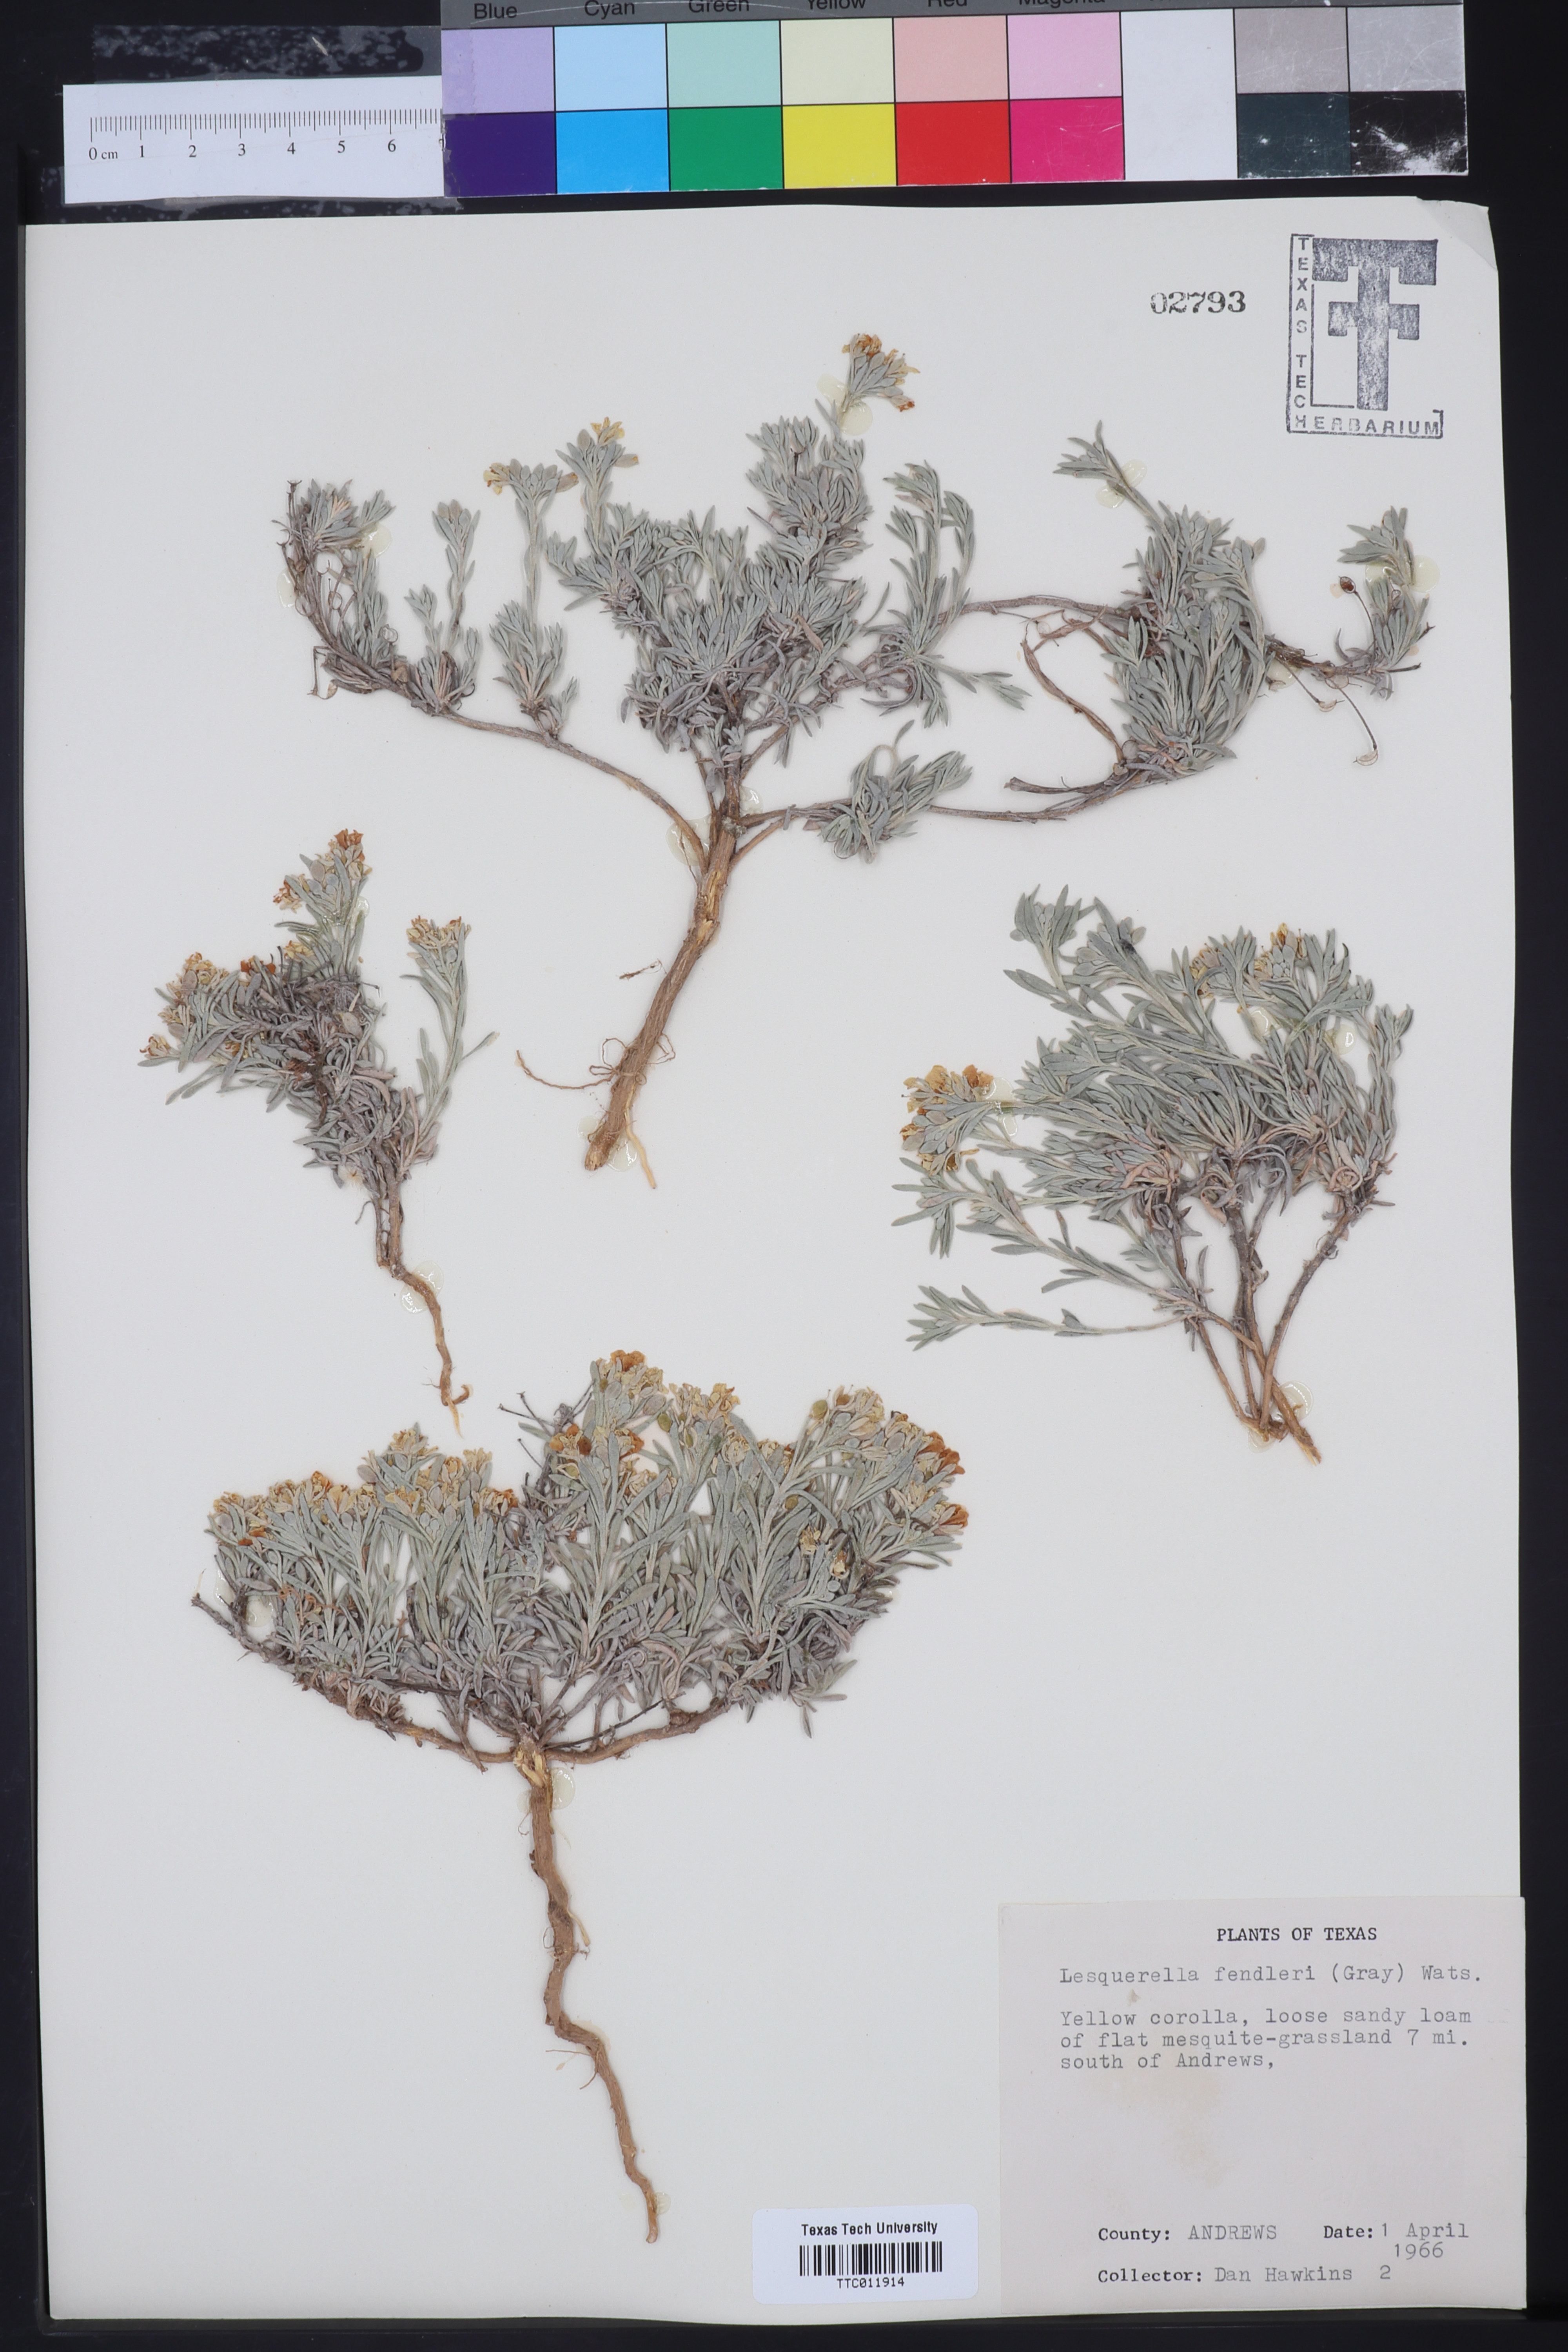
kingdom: Plantae
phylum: Tracheophyta
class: Magnoliopsida
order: Brassicales
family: Brassicaceae
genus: Physaria
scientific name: Physaria fendleri
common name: Fendler's bladderpod
